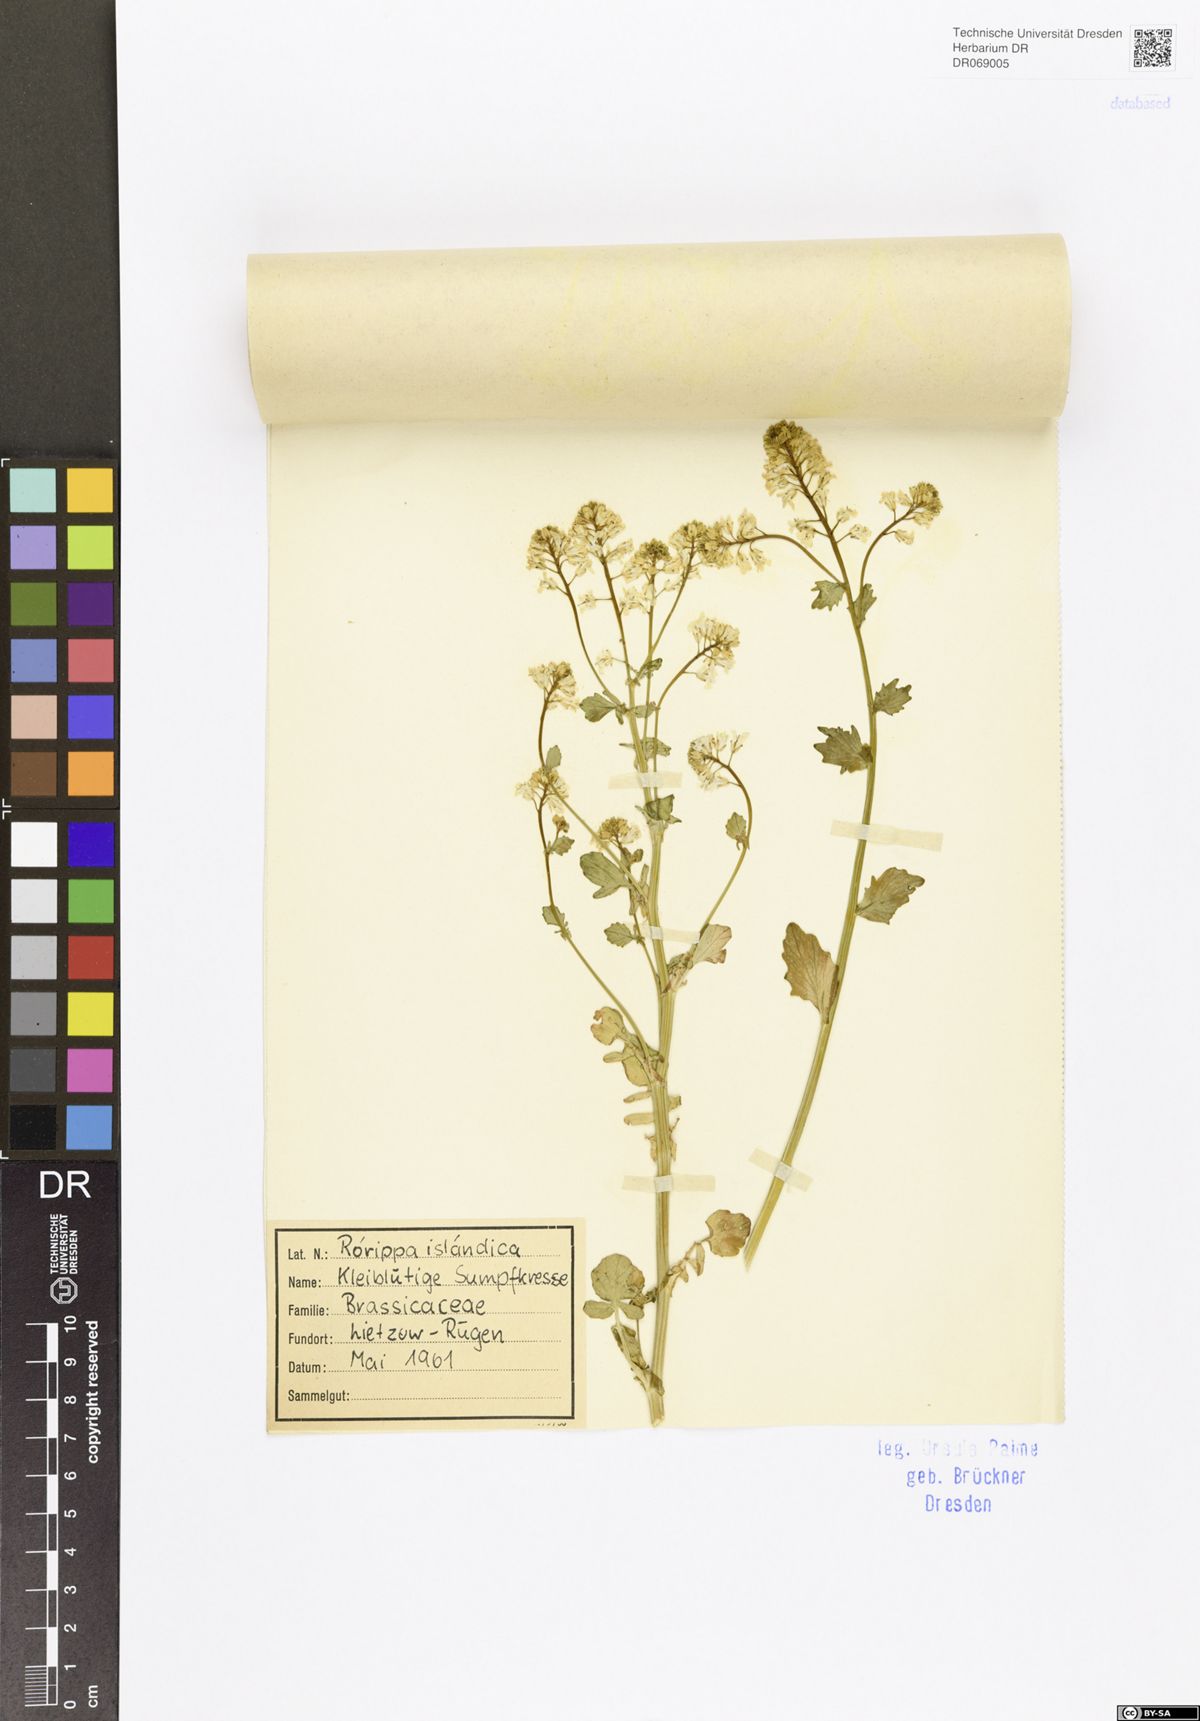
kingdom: Plantae
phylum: Tracheophyta
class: Magnoliopsida
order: Brassicales
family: Brassicaceae
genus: Rorippa
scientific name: Rorippa islandica
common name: Marsh cress
